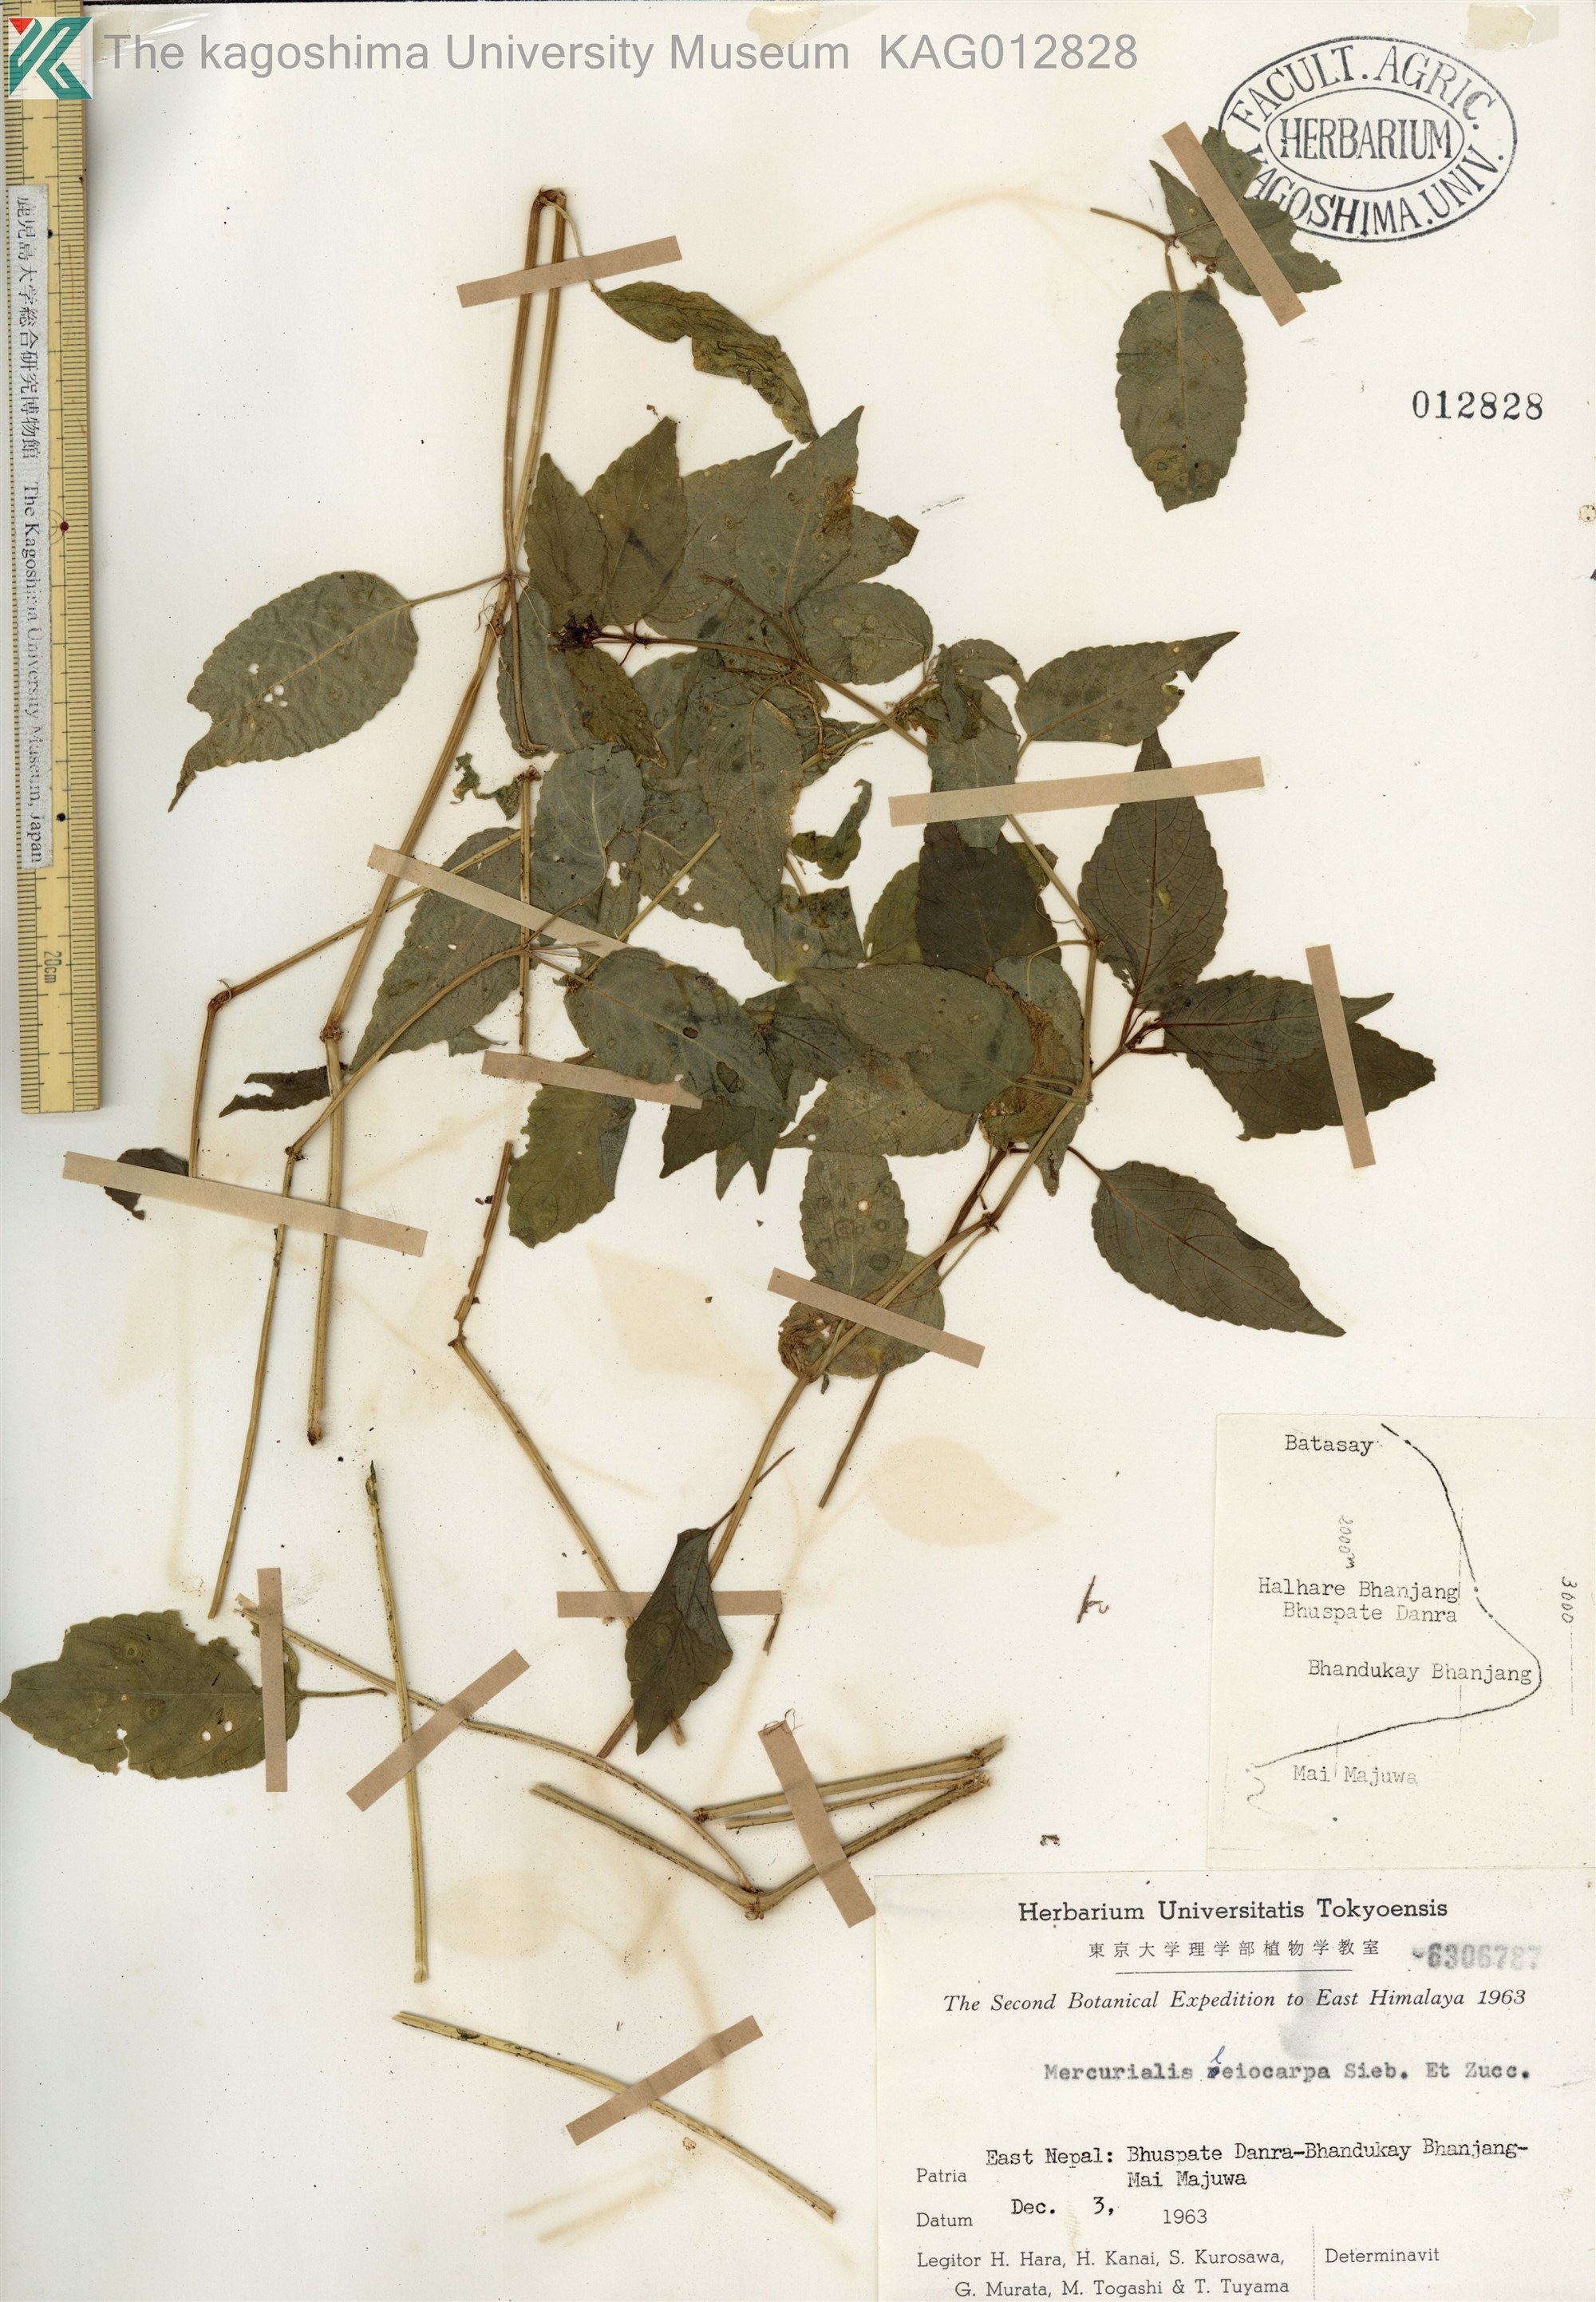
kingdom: Plantae
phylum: Tracheophyta
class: Magnoliopsida
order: Malpighiales
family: Euphorbiaceae
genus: Mercurialis
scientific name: Mercurialis leiocarpa
